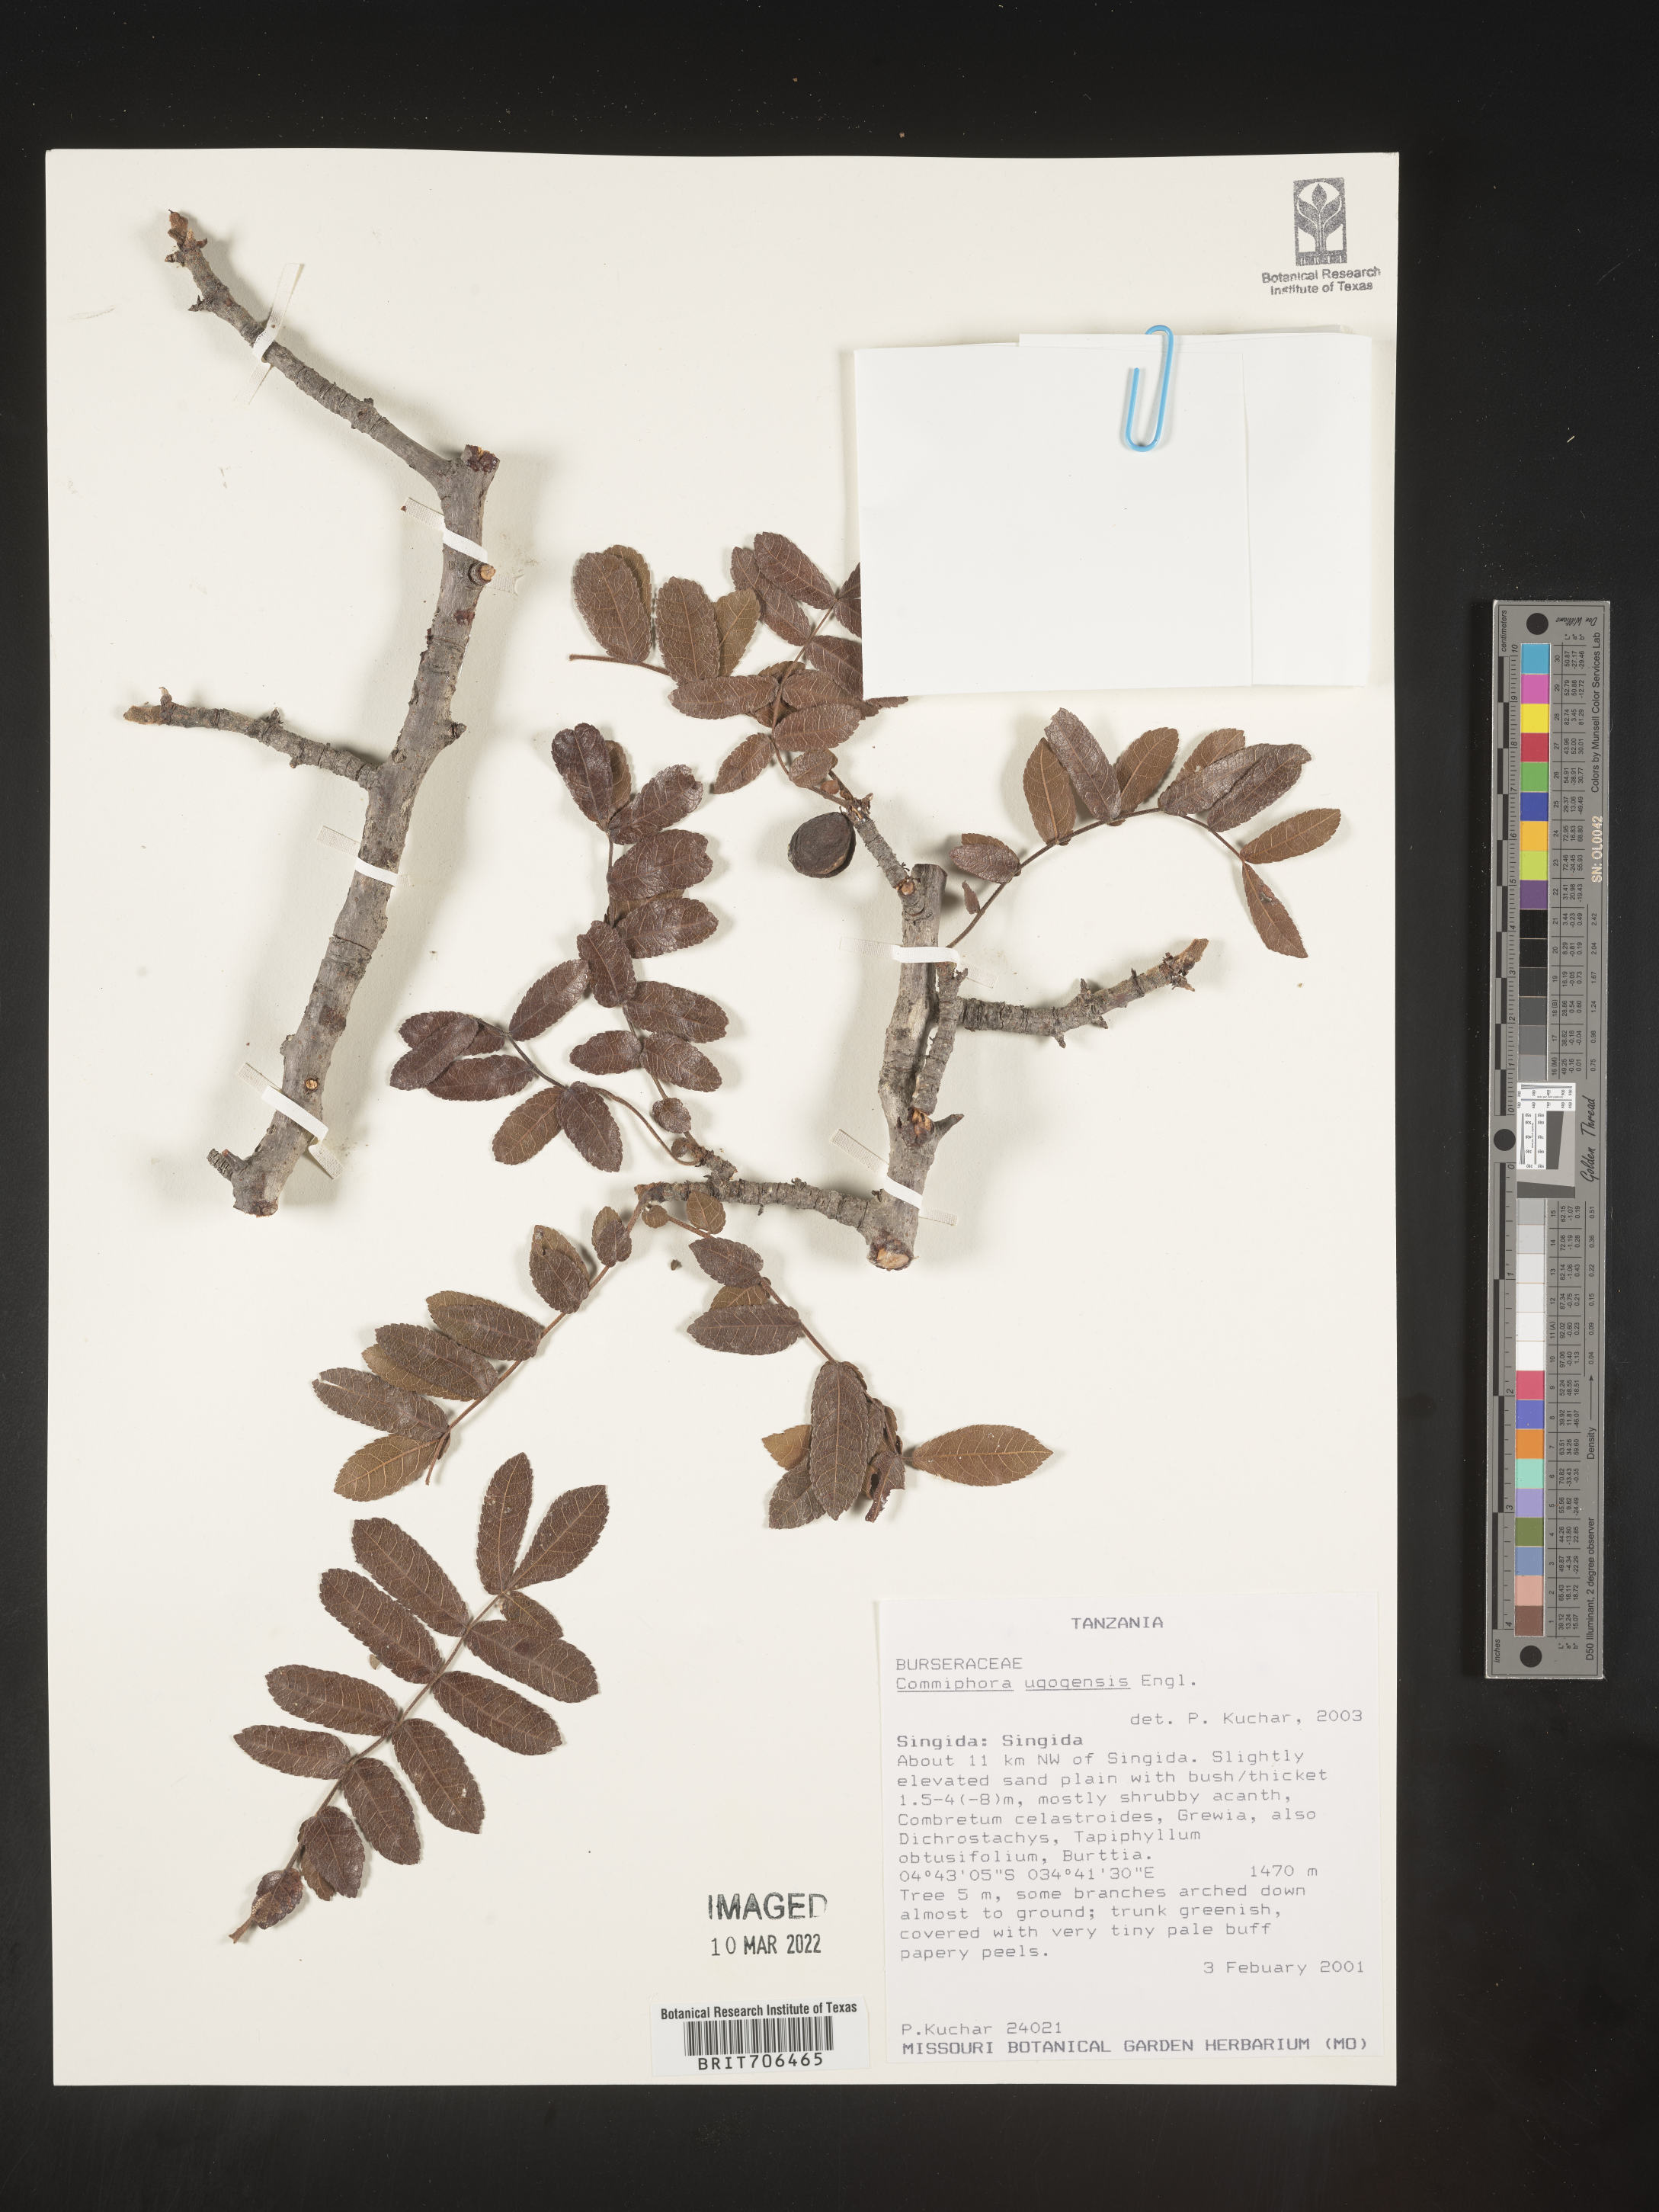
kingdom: Plantae
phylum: Tracheophyta
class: Magnoliopsida
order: Sapindales
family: Burseraceae
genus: Commiphora
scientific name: Commiphora
